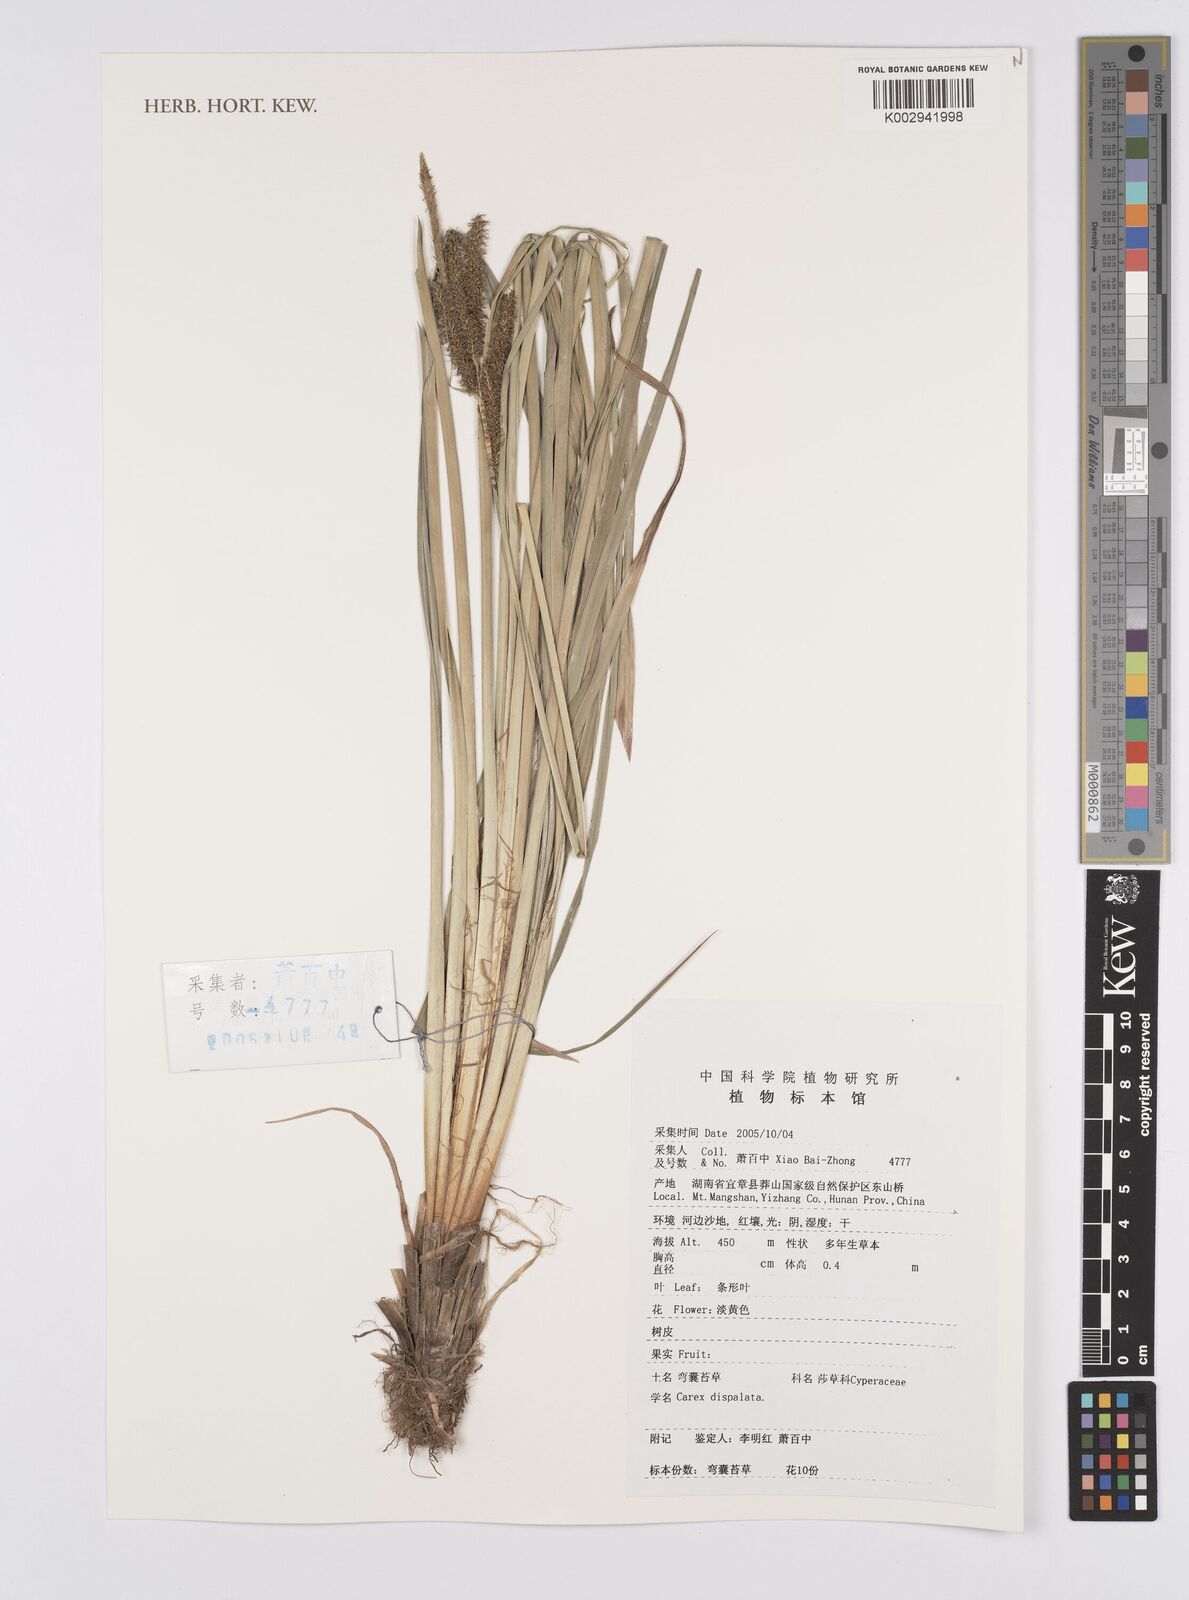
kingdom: Plantae
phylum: Tracheophyta
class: Liliopsida
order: Poales
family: Cyperaceae
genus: Carex
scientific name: Carex dispalata
